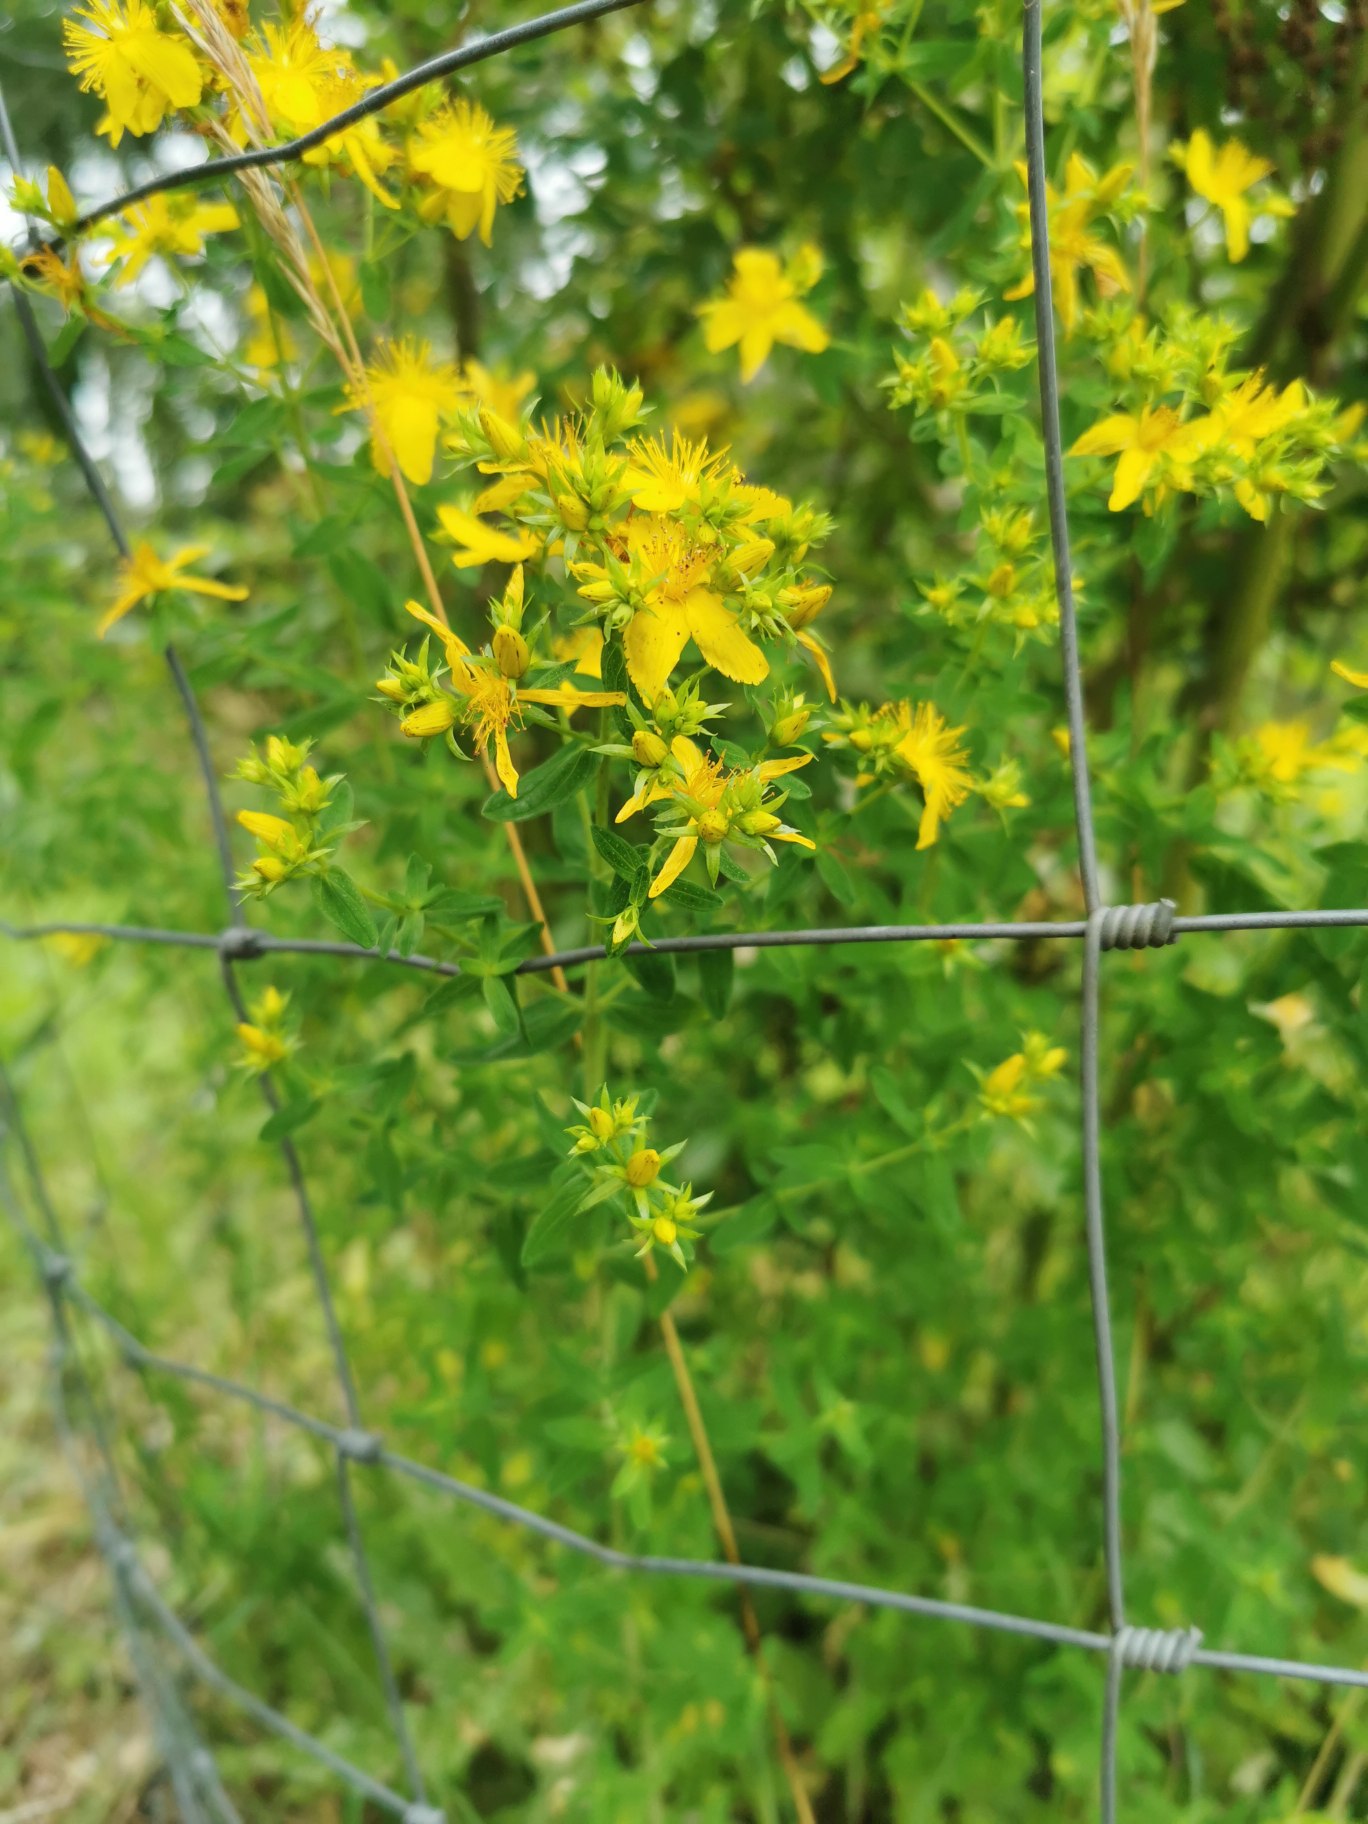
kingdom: Plantae
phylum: Tracheophyta
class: Magnoliopsida
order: Malpighiales
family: Hypericaceae
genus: Hypericum
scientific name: Hypericum perforatum
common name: Prikbladet perikon
